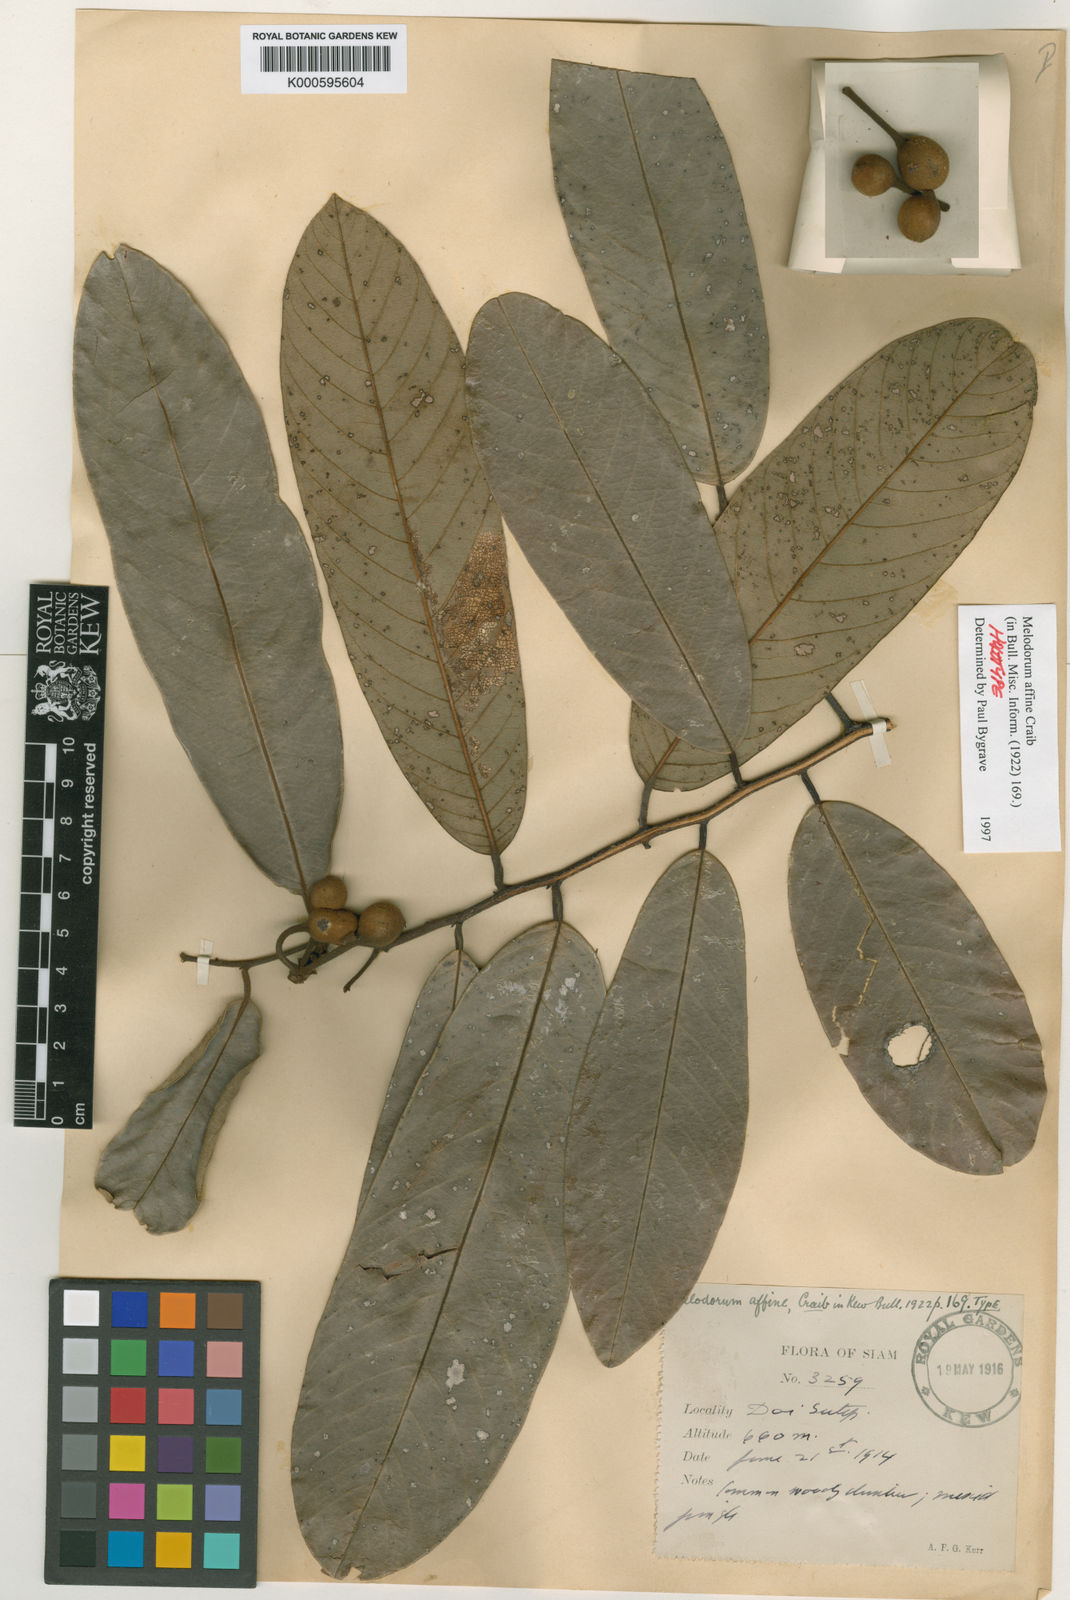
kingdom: Plantae
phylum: Tracheophyta
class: Magnoliopsida
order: Magnoliales
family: Annonaceae
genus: Fissistigma
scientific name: Fissistigma
